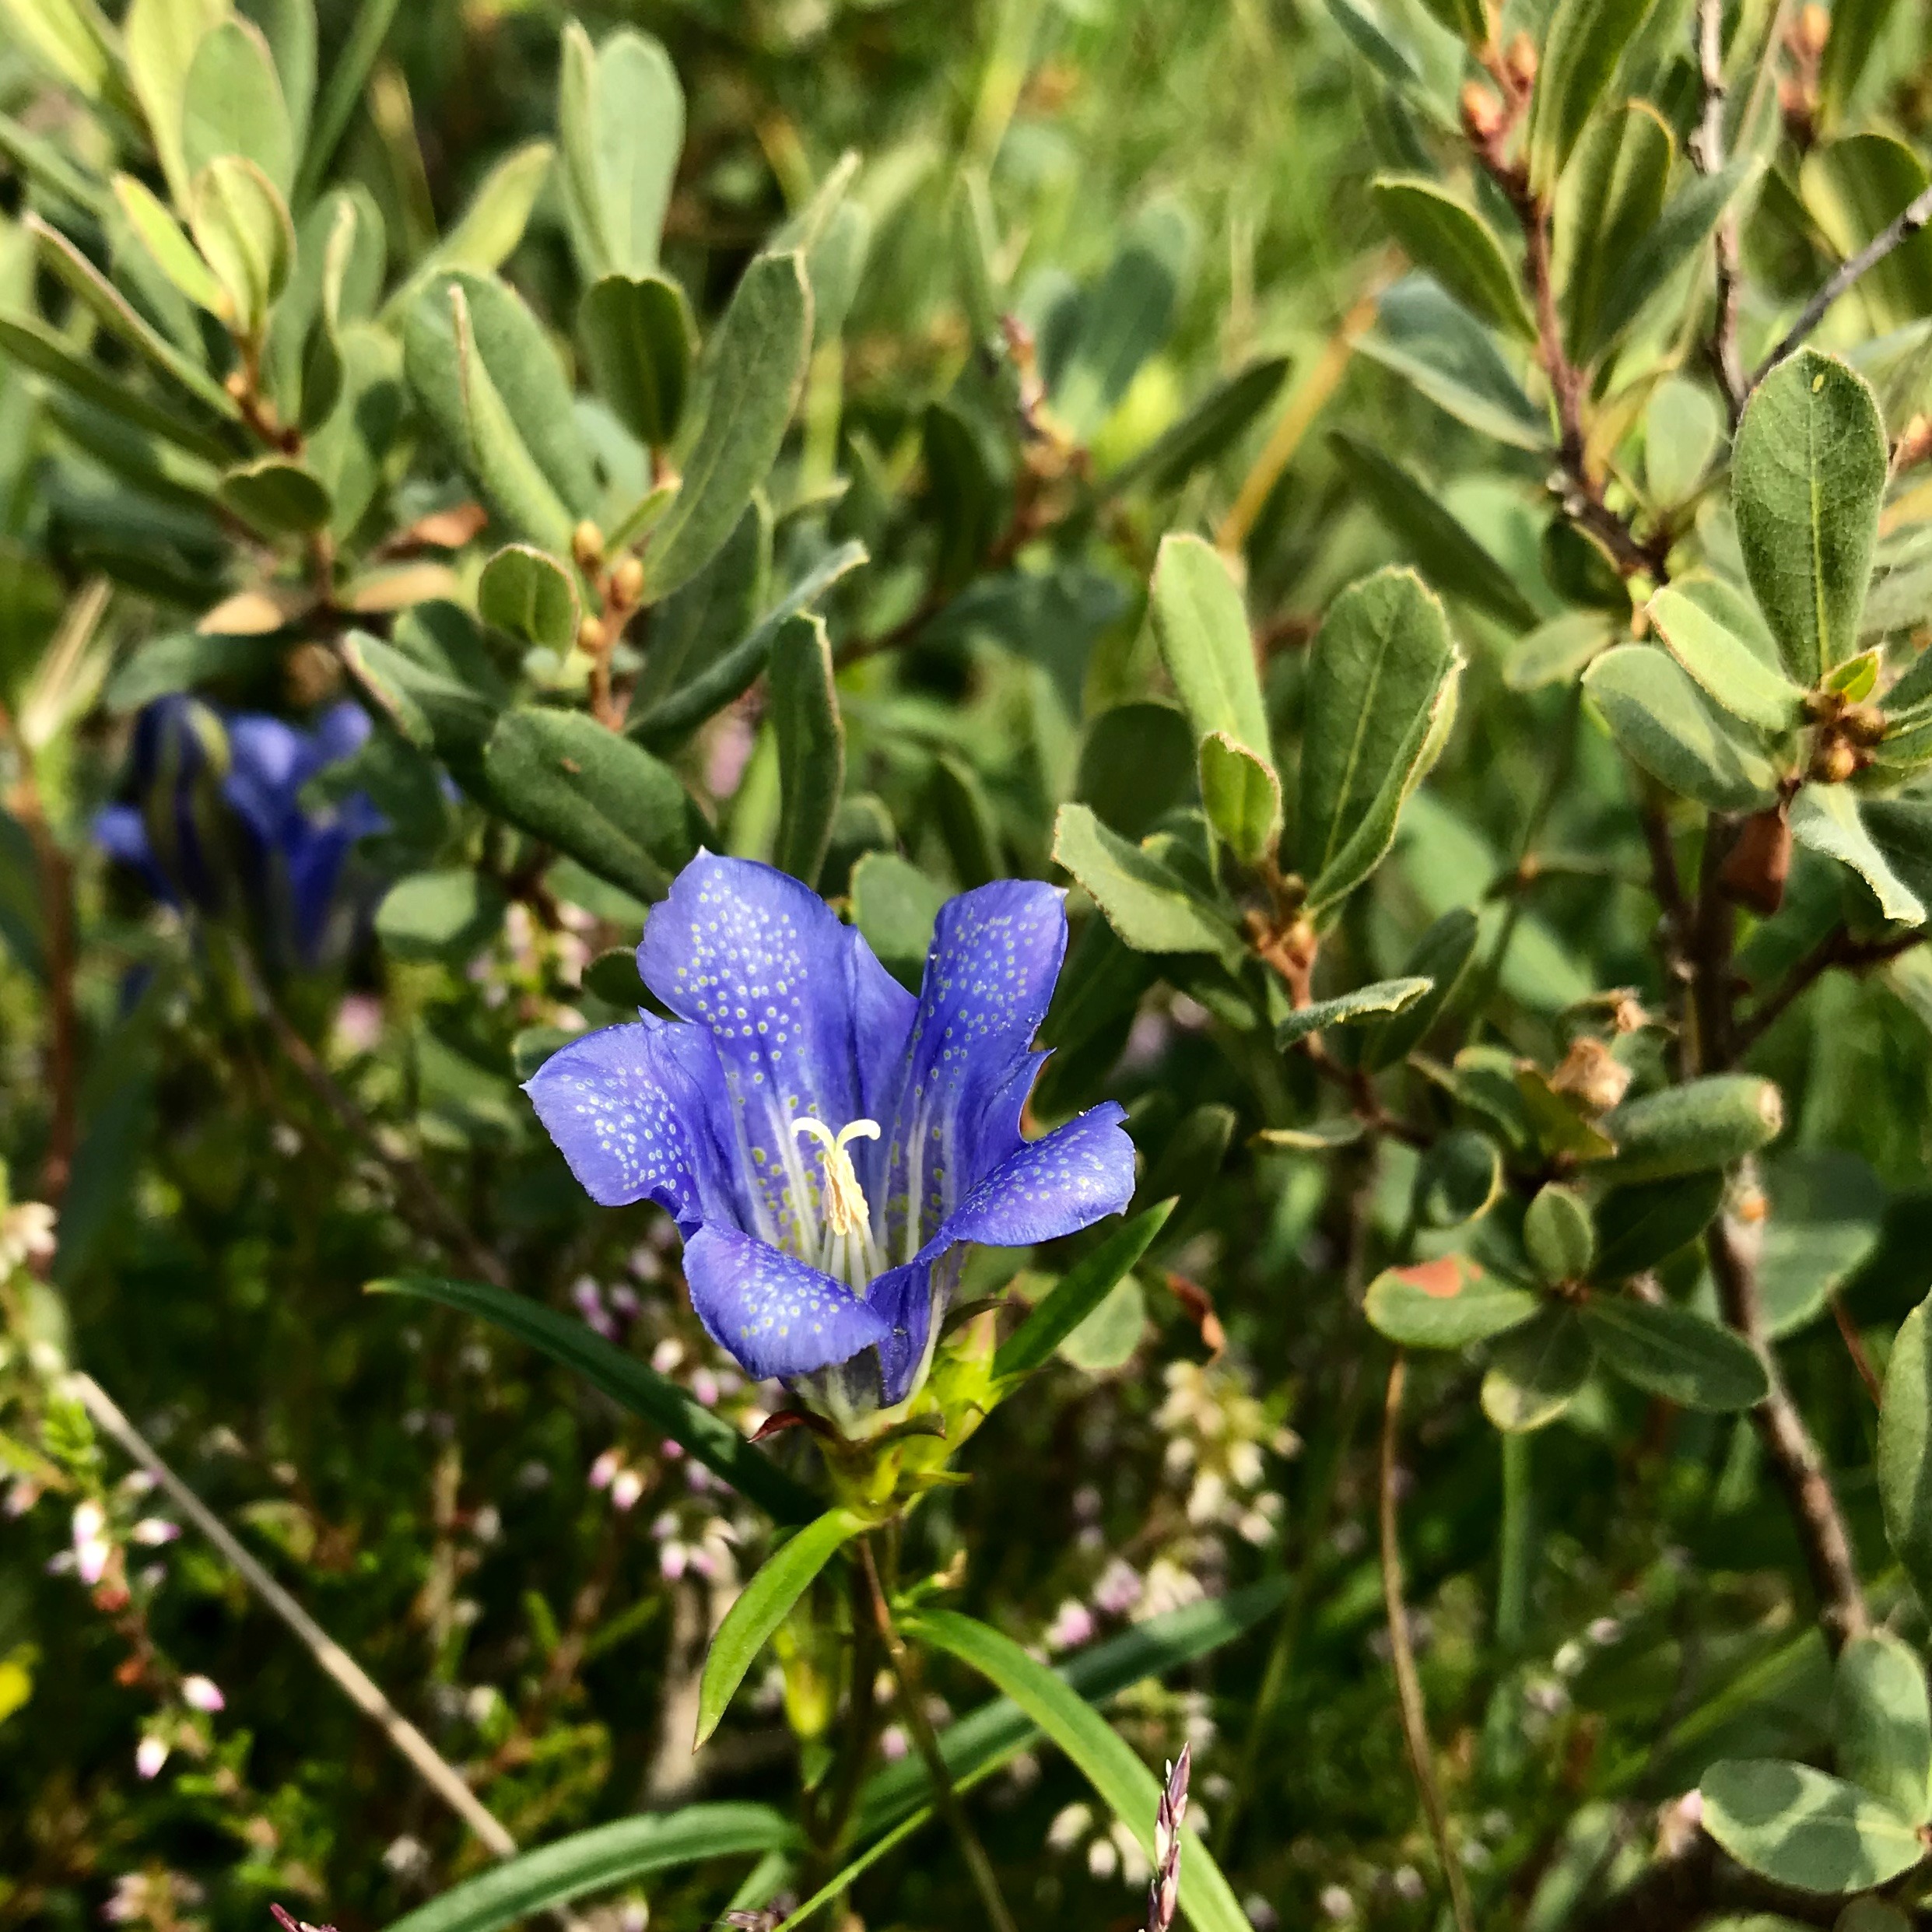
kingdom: Plantae
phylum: Tracheophyta
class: Magnoliopsida
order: Gentianales
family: Gentianaceae
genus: Gentiana
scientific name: Gentiana pneumonanthe
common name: Klokke-ensian
